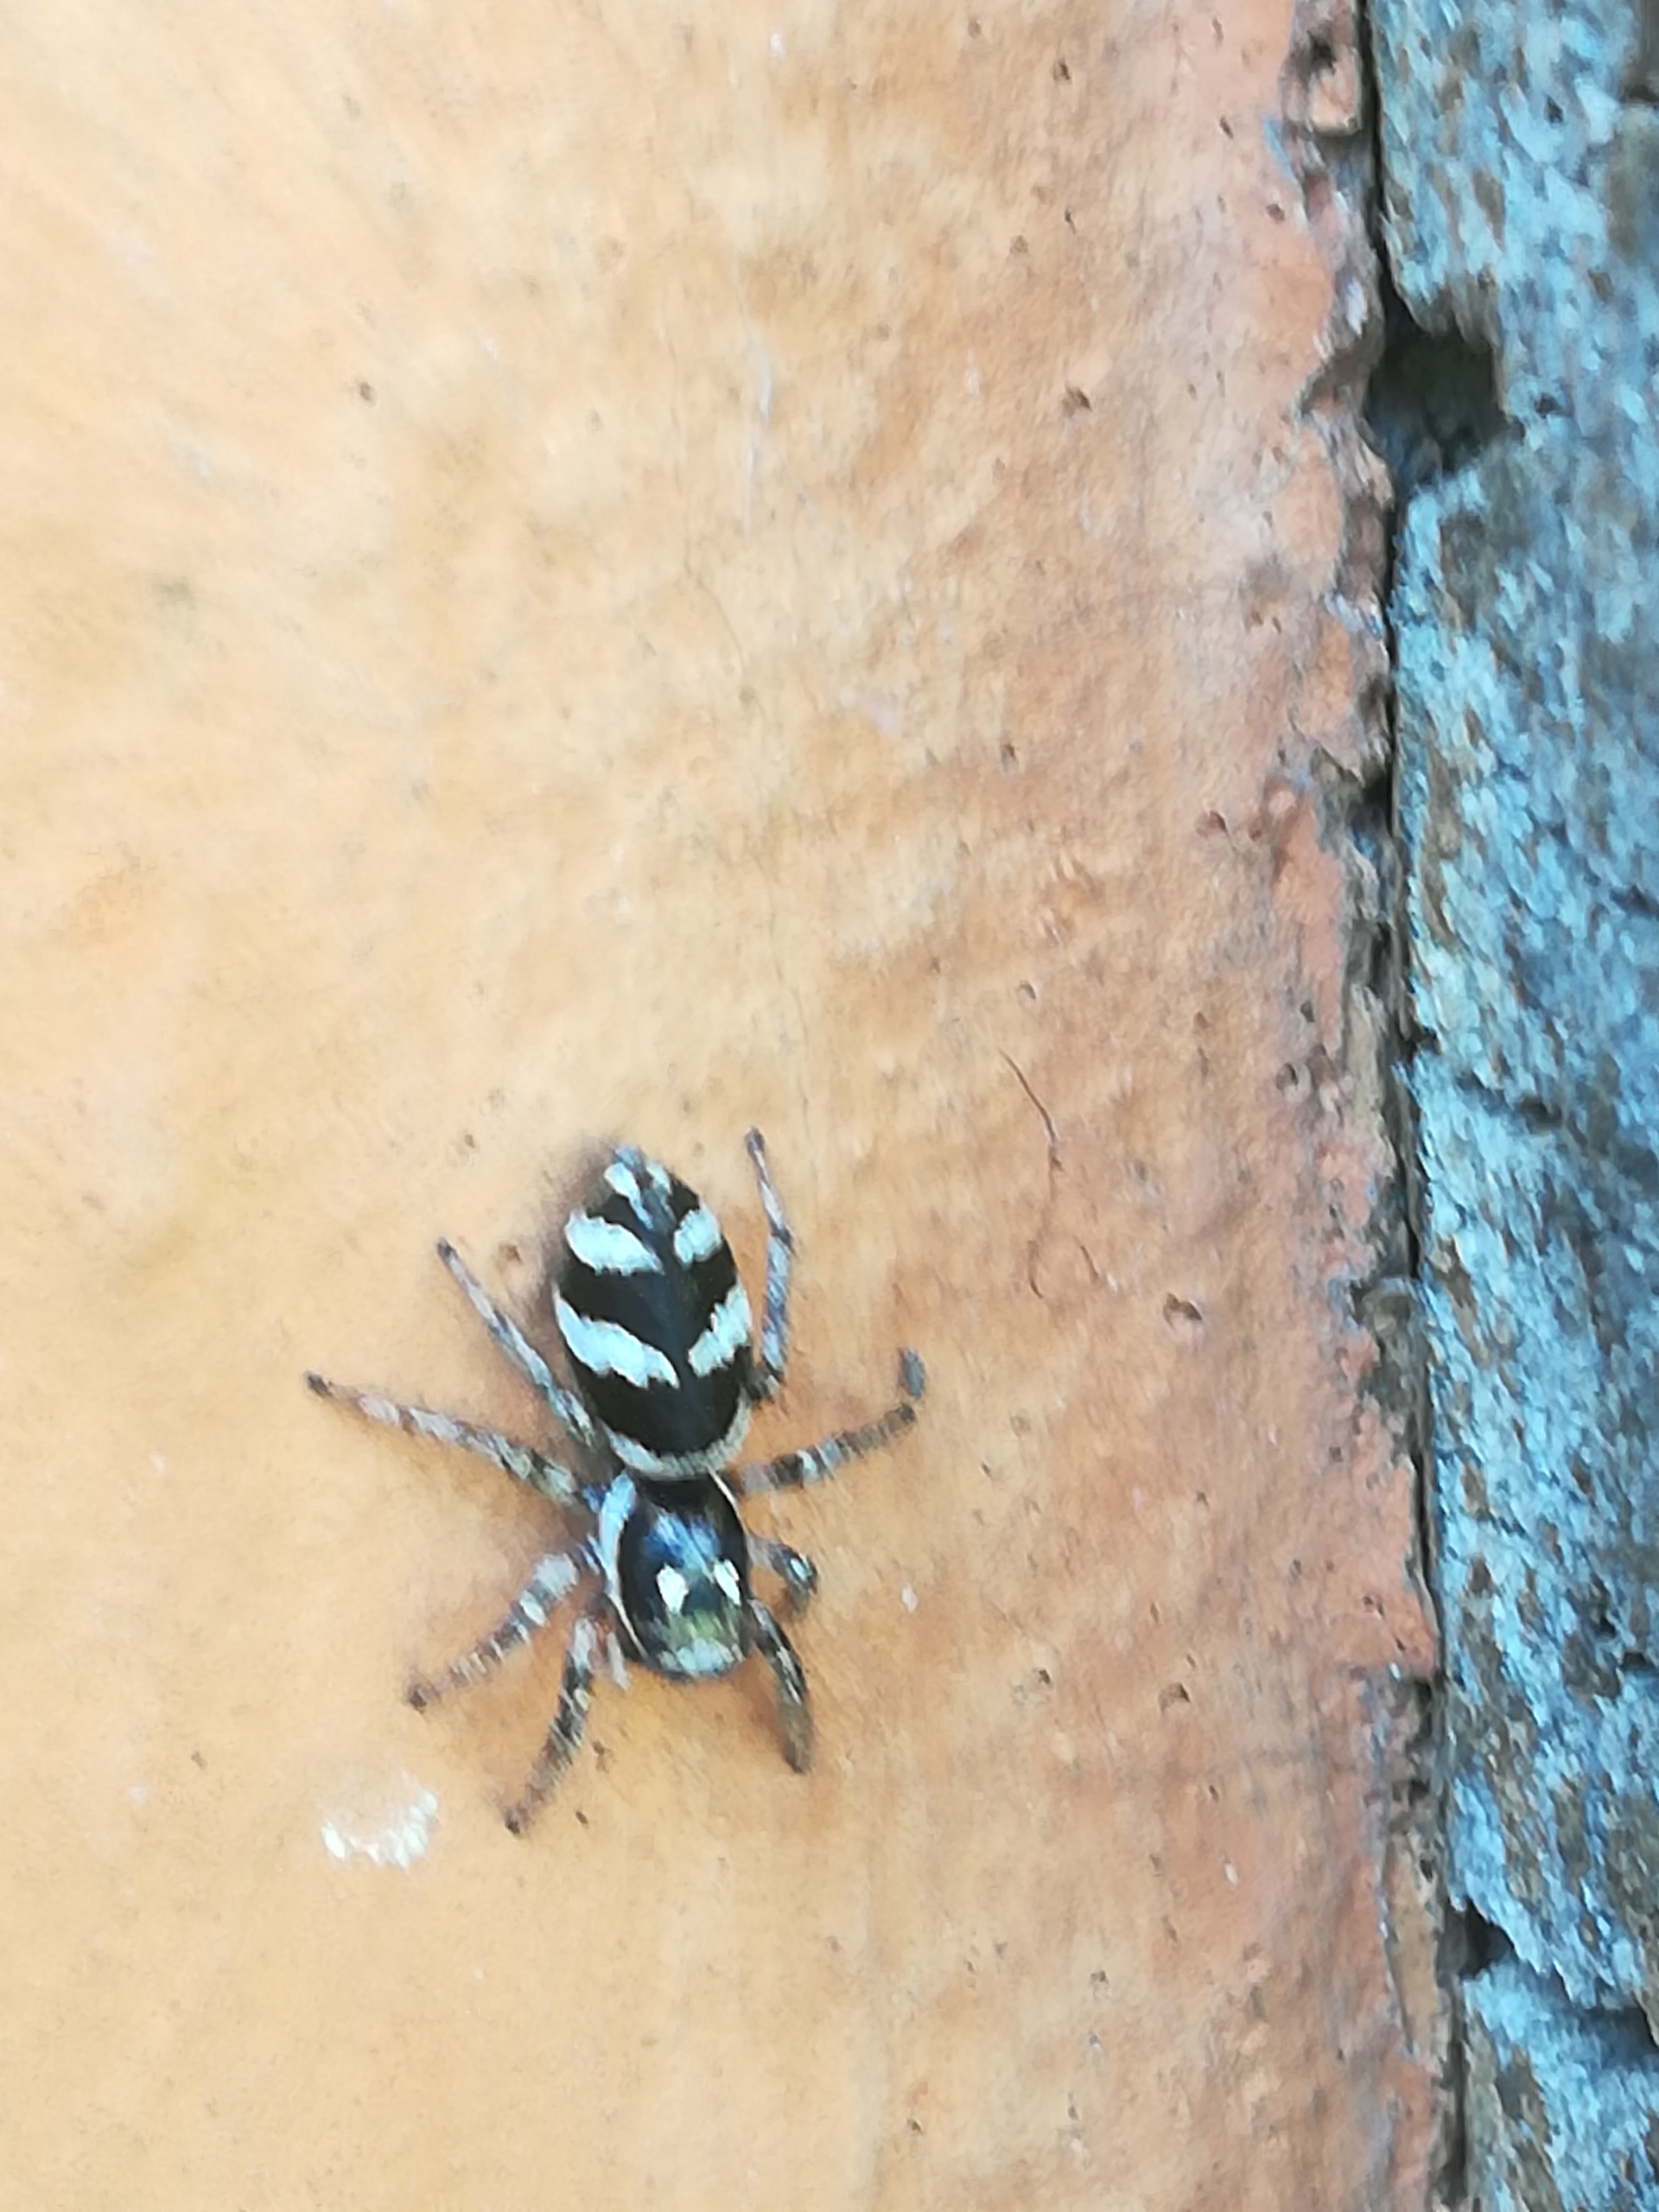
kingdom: Animalia
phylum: Arthropoda
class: Arachnida
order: Araneae
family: Salticidae
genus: Salticus
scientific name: Salticus scenicus
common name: Almindelig zebraedderkop
